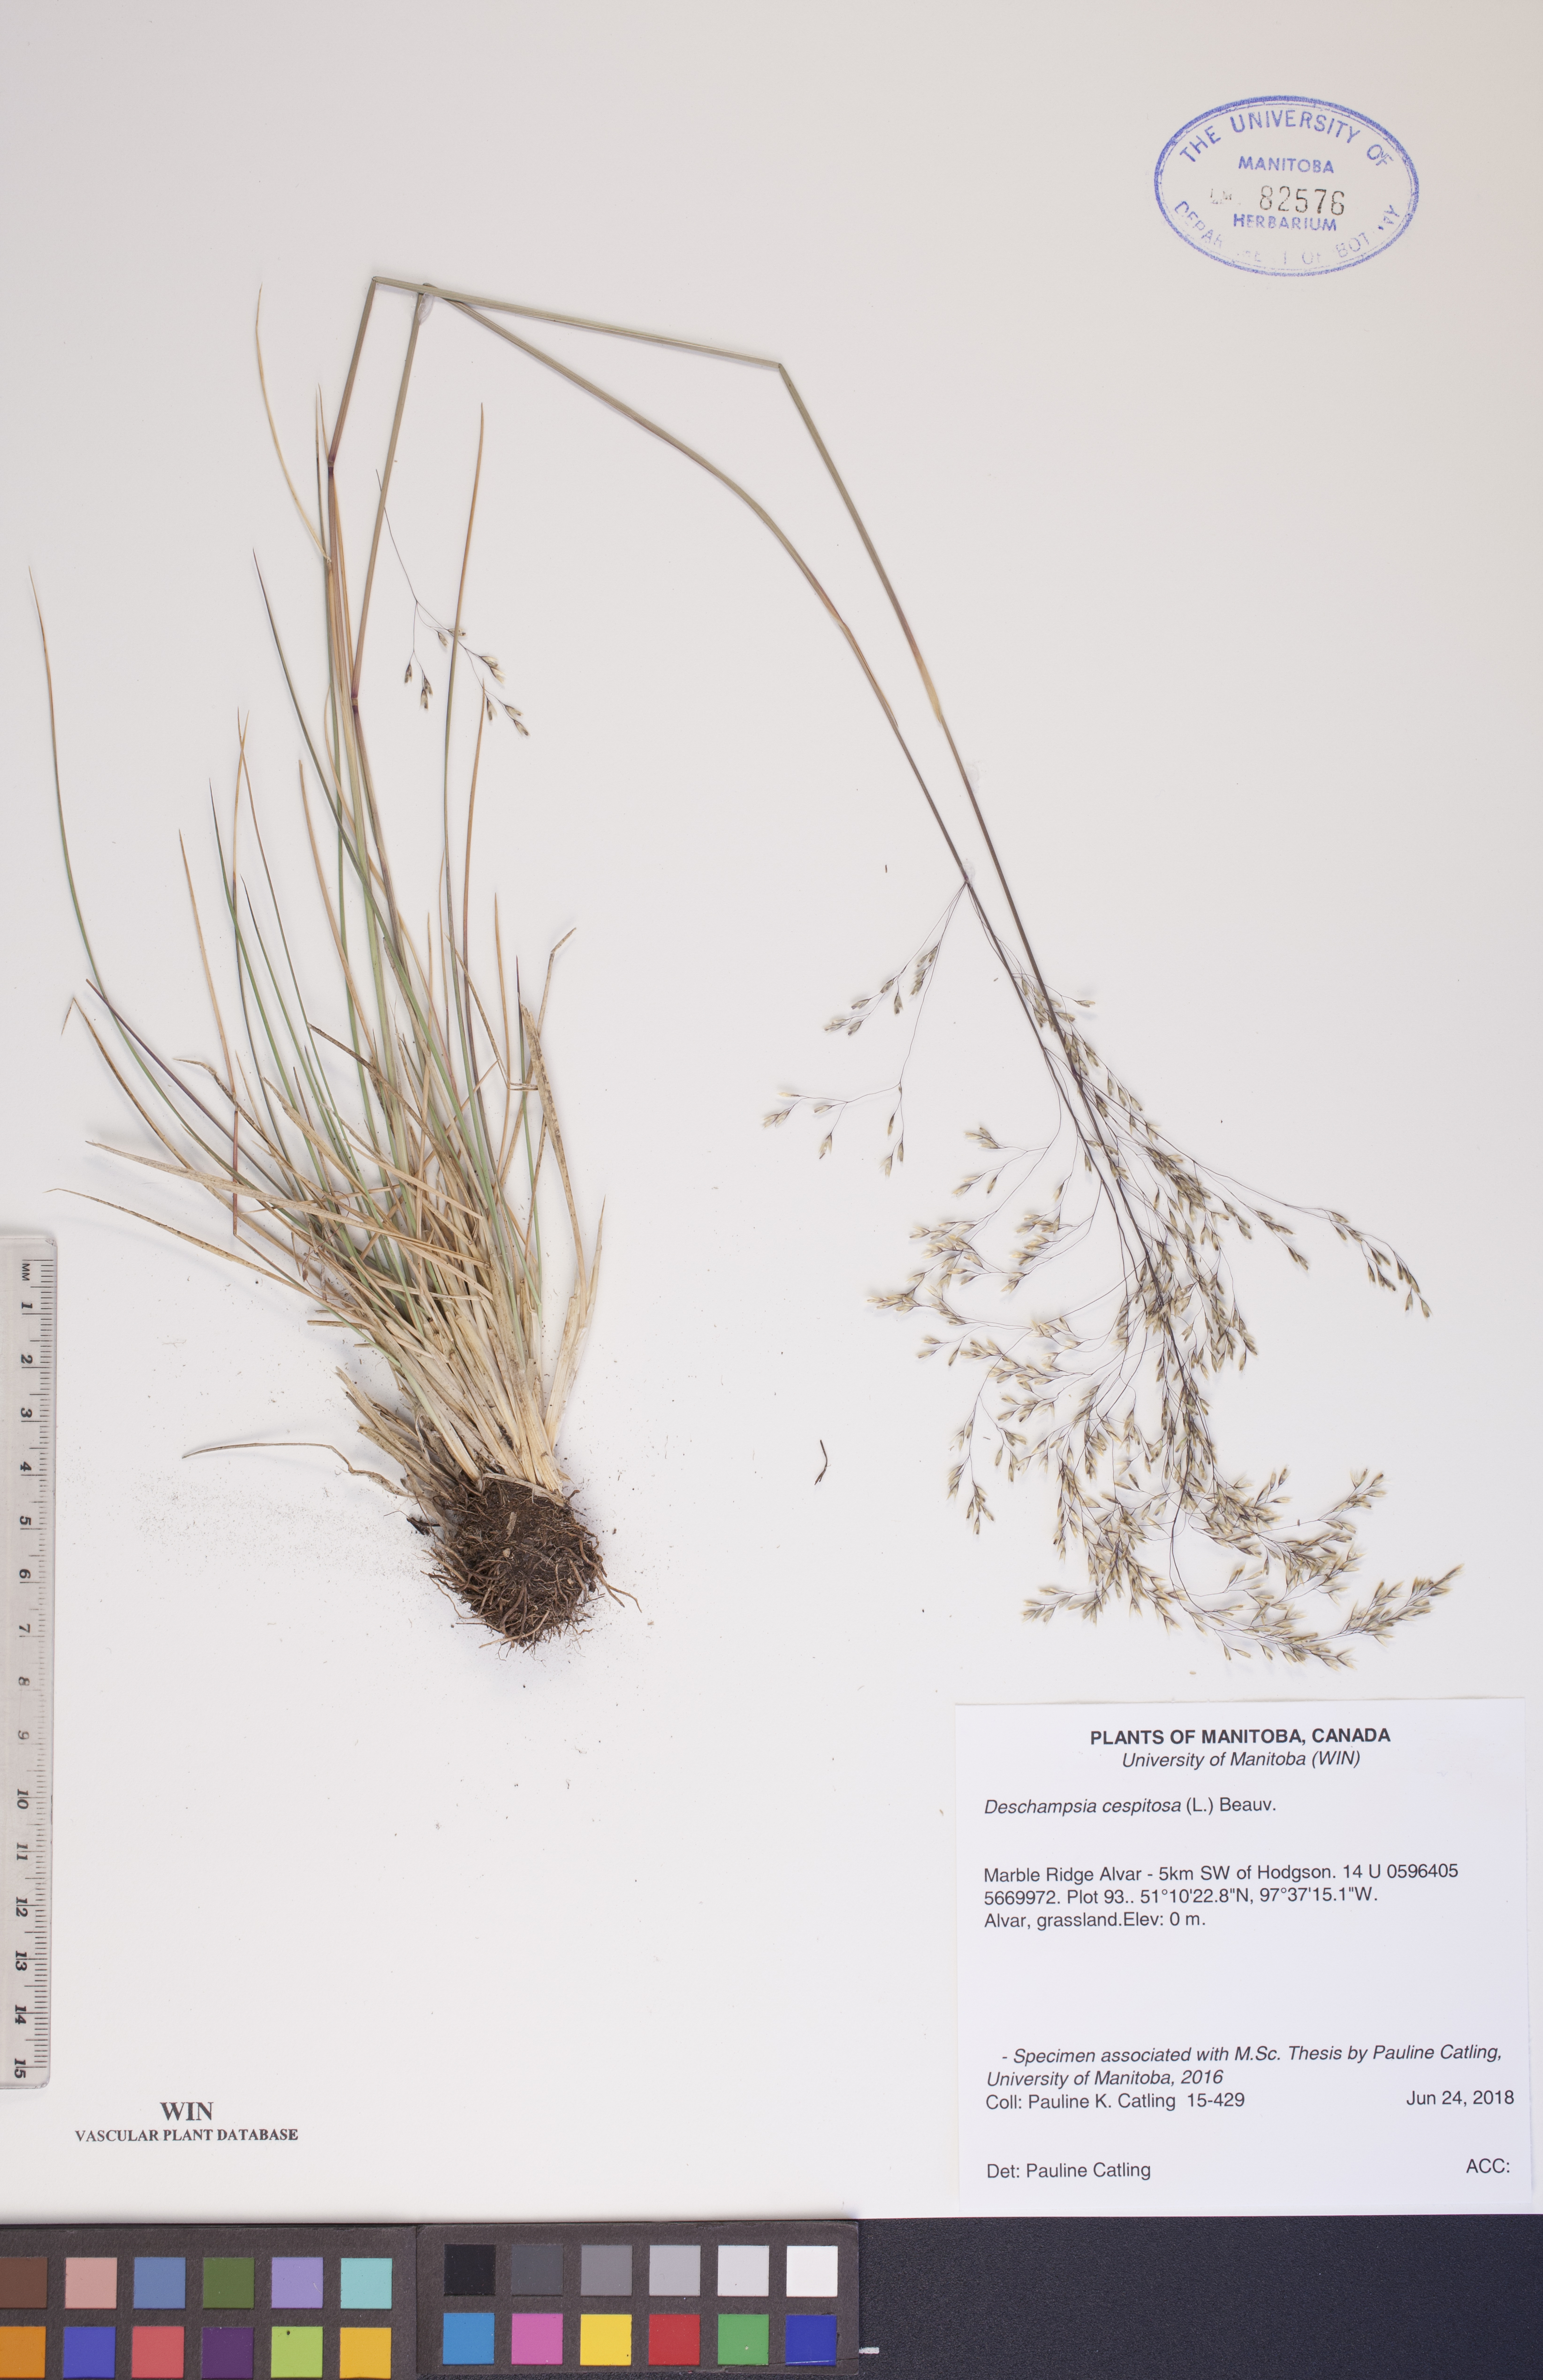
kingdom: Plantae
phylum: Tracheophyta
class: Liliopsida
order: Poales
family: Poaceae
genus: Deschampsia
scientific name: Deschampsia cespitosa
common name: Tufted hair-grass
